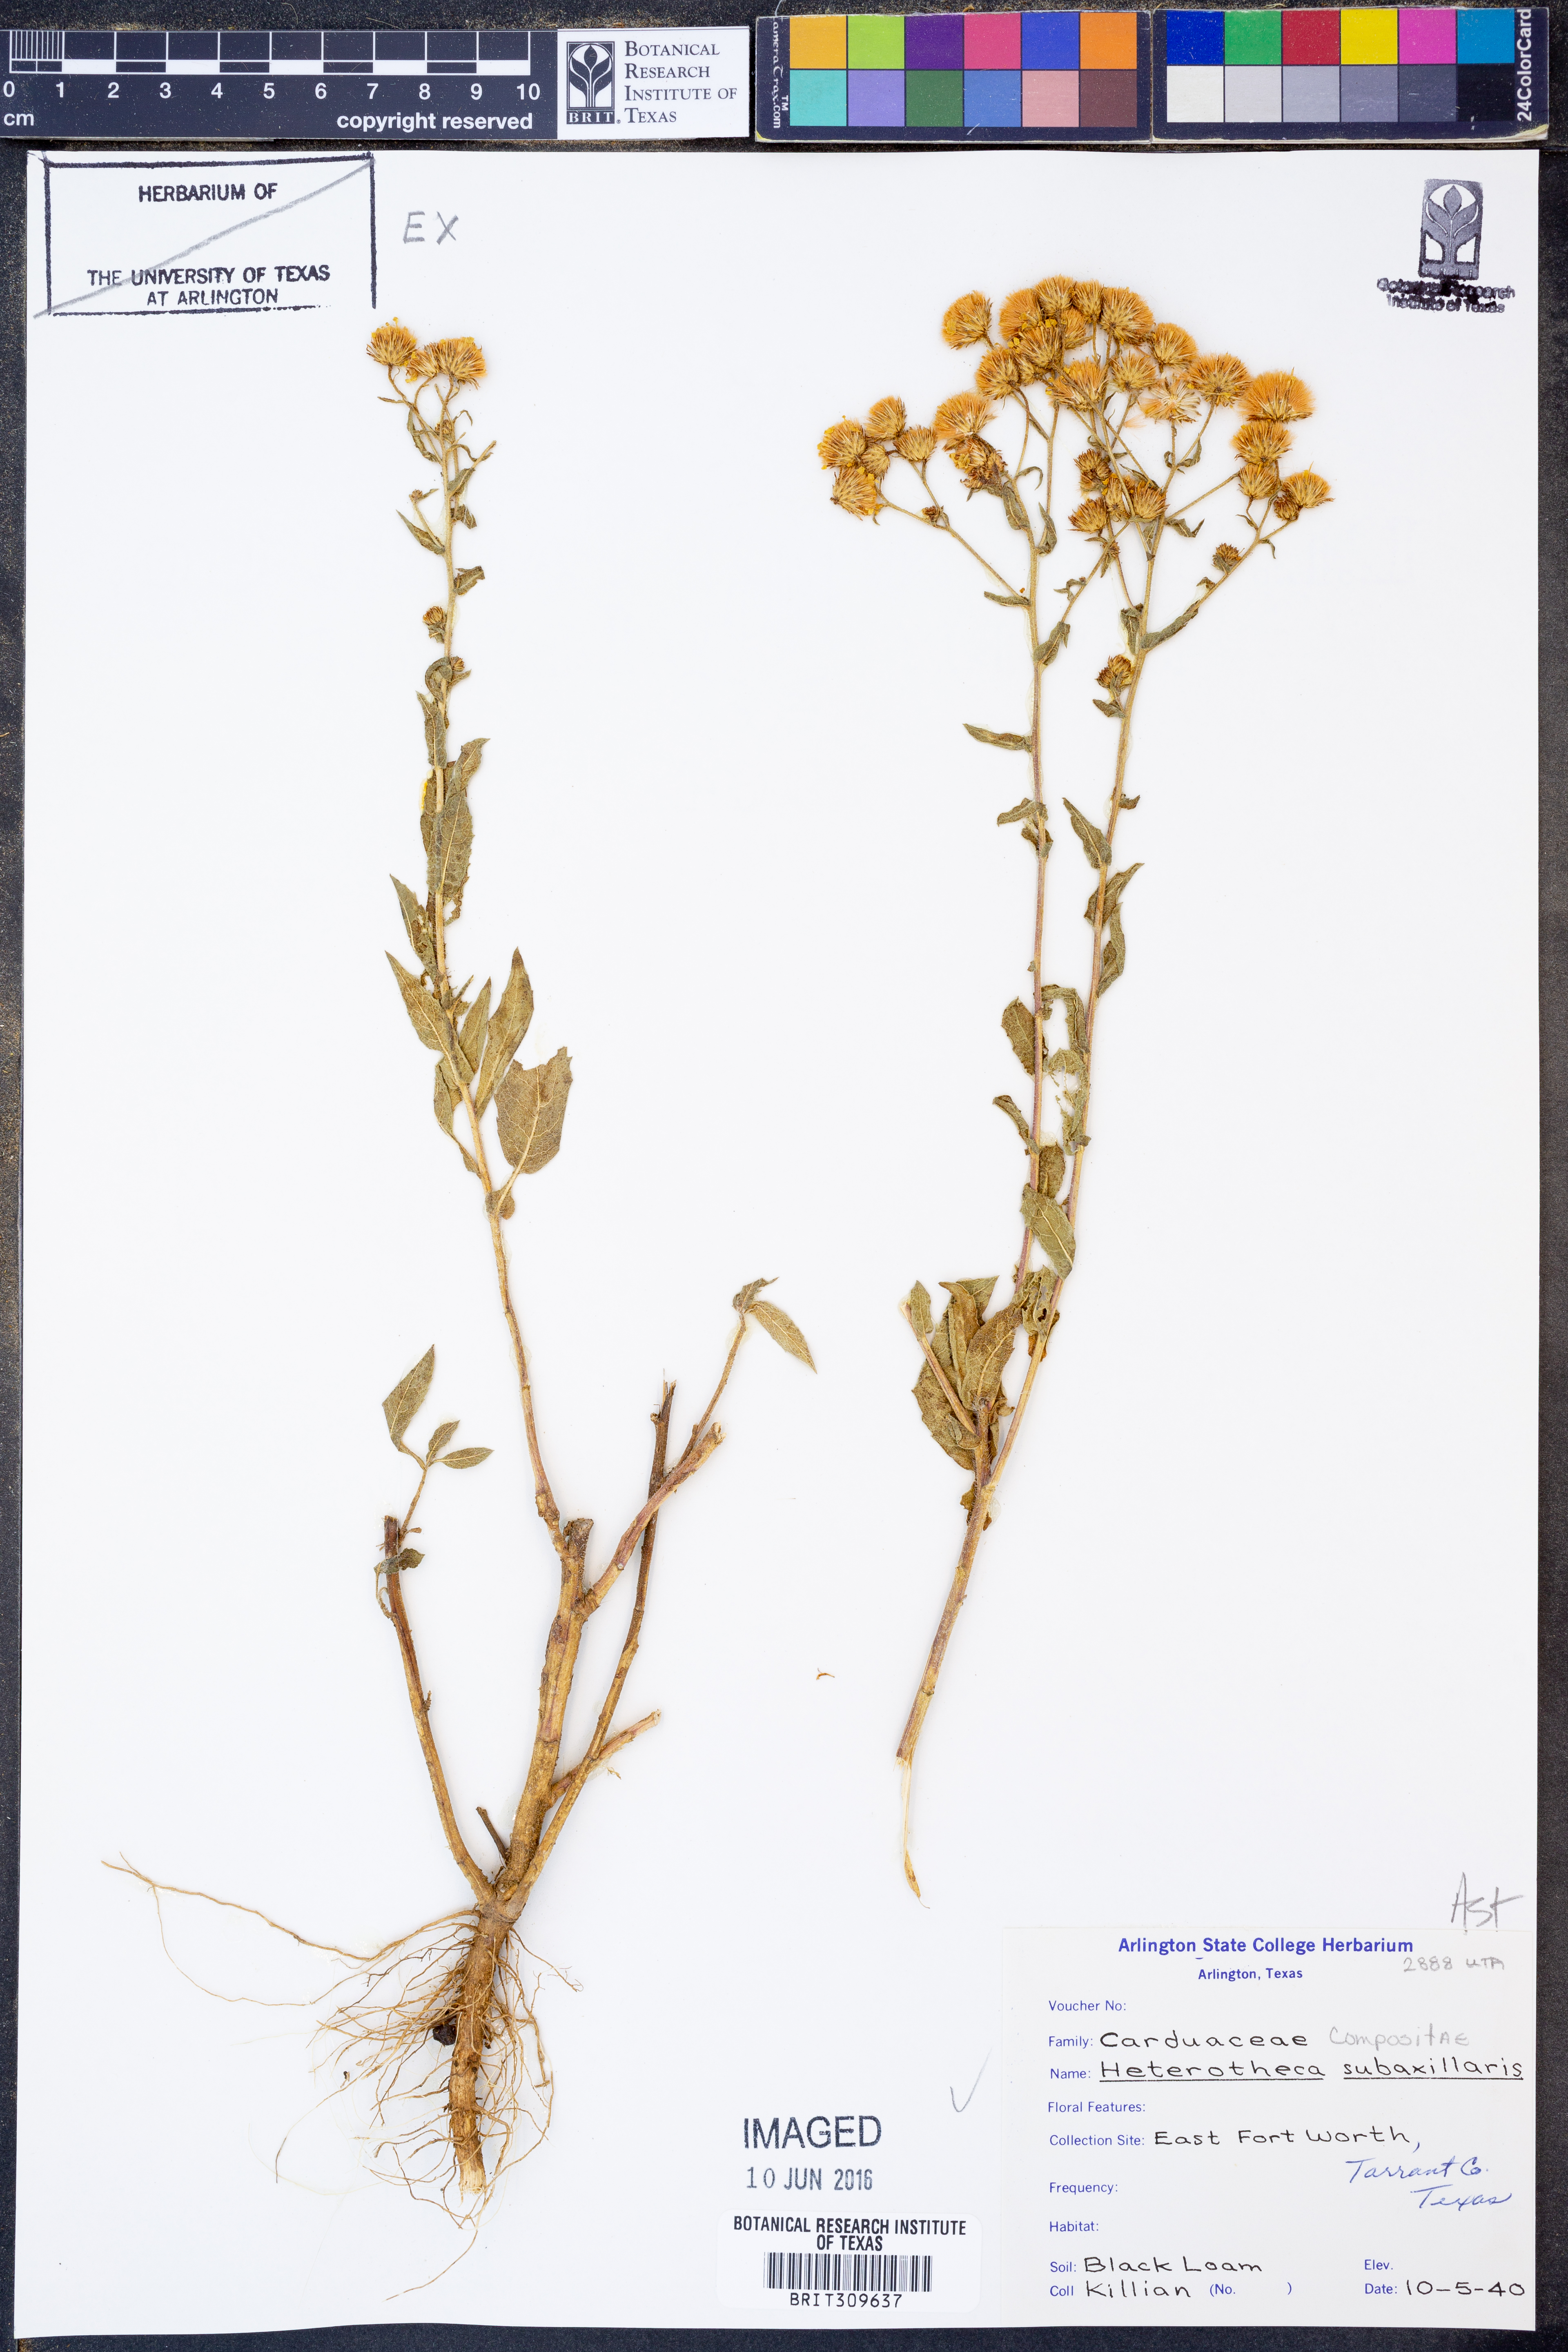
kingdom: Plantae
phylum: Tracheophyta
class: Magnoliopsida
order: Asterales
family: Asteraceae
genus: Heterotheca
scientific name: Heterotheca subaxillaris
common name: Camphorweed
